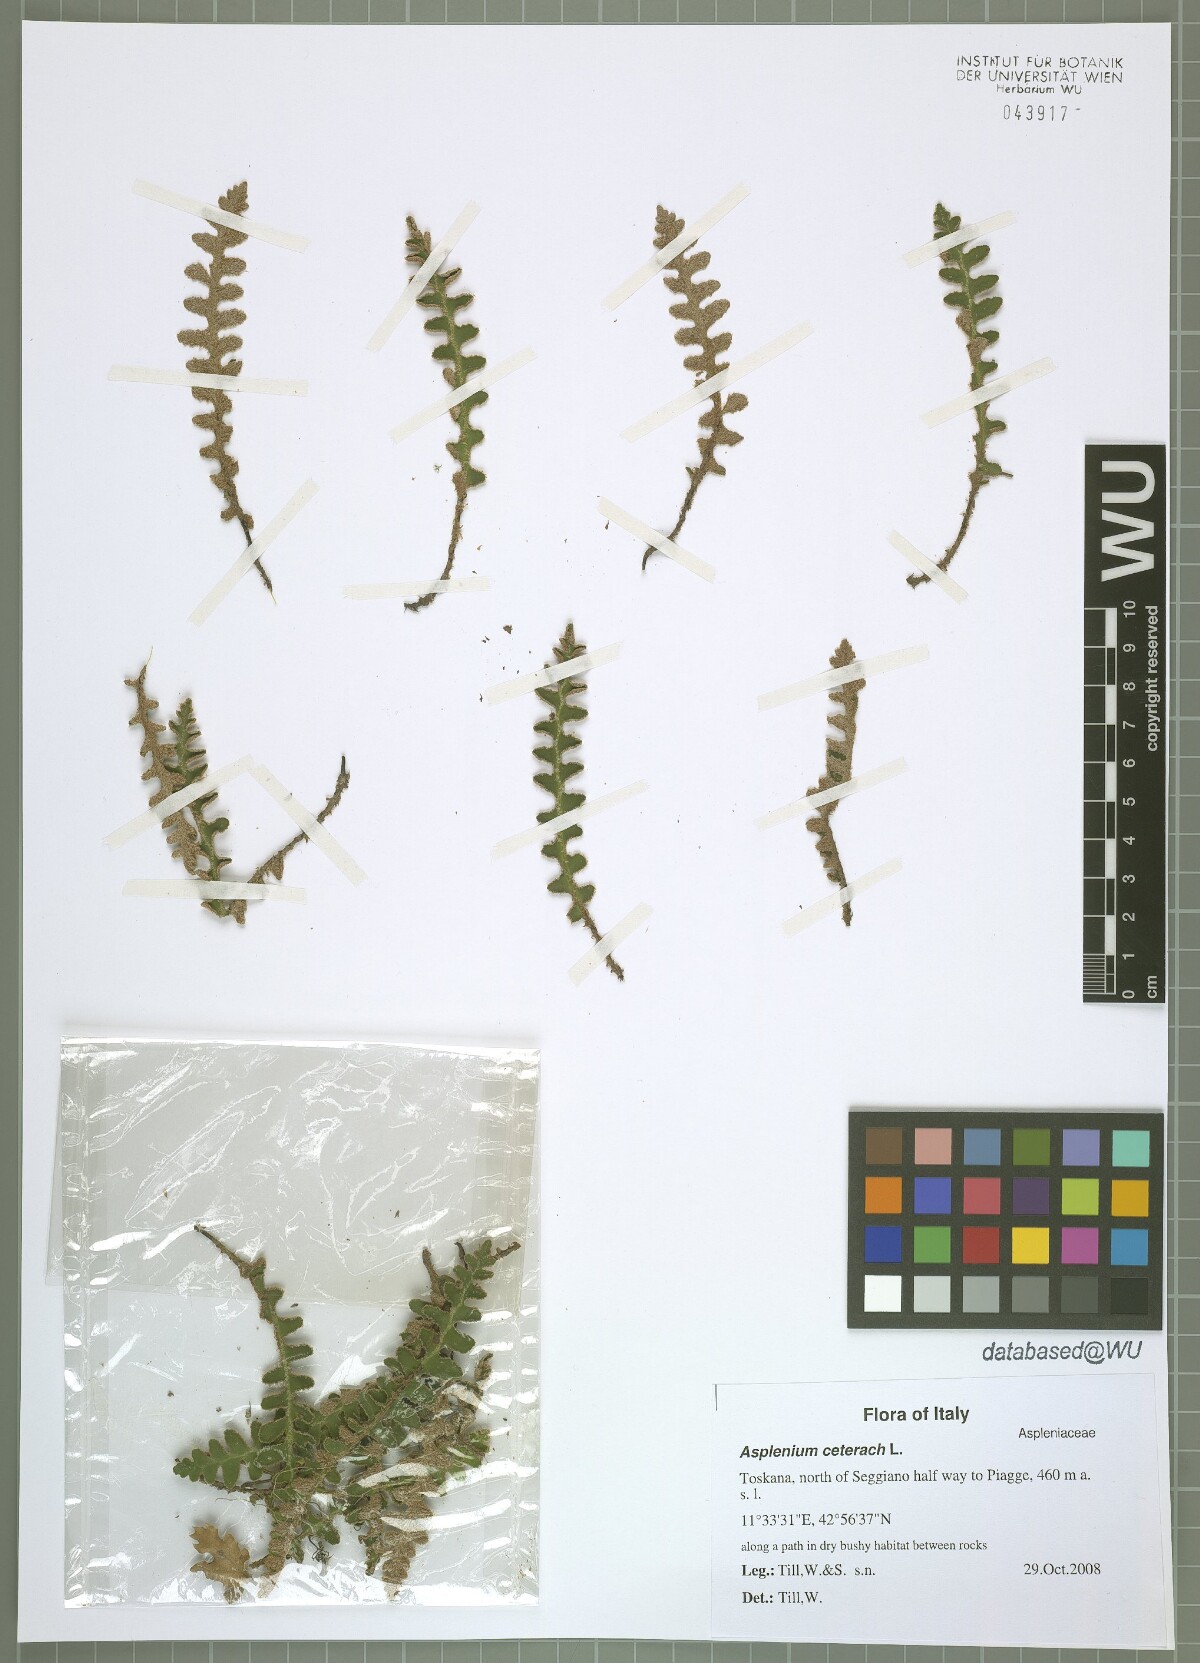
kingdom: Plantae
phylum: Tracheophyta
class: Polypodiopsida
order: Polypodiales
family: Aspleniaceae
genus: Asplenium
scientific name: Asplenium ceterach
